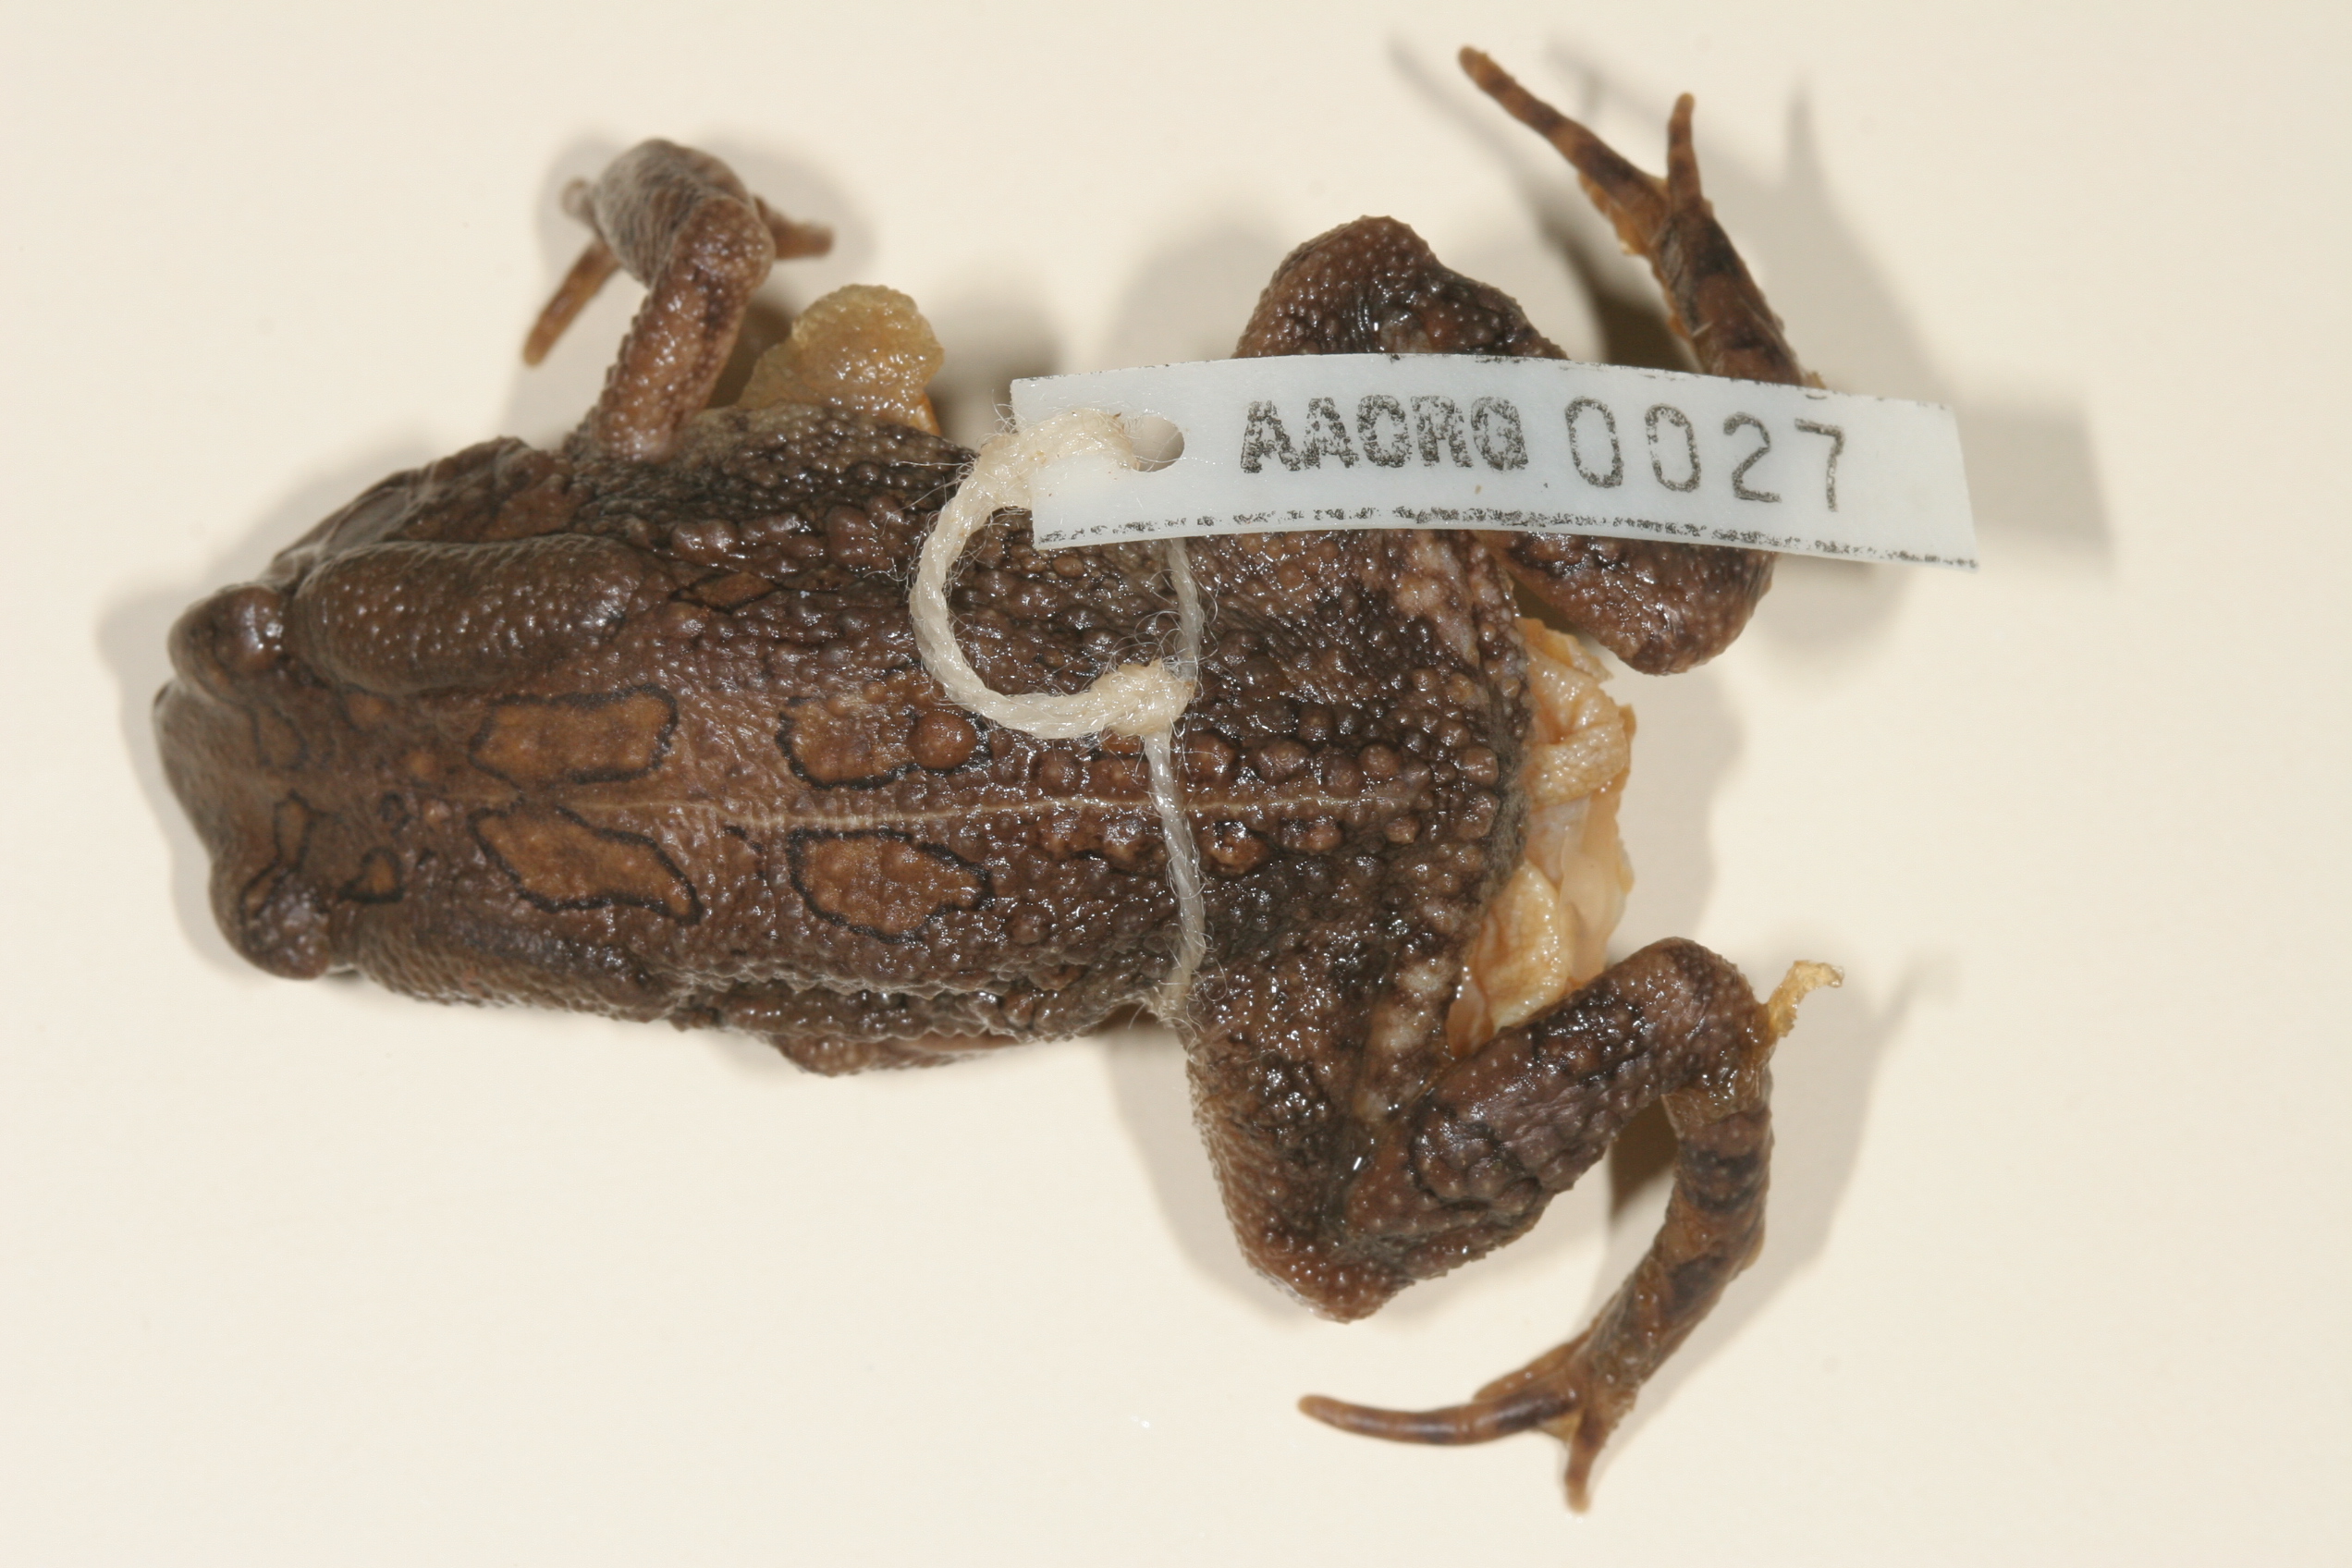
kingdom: Animalia
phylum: Chordata
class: Amphibia
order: Anura
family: Bufonidae
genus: Sclerophrys
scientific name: Sclerophrys garmani
